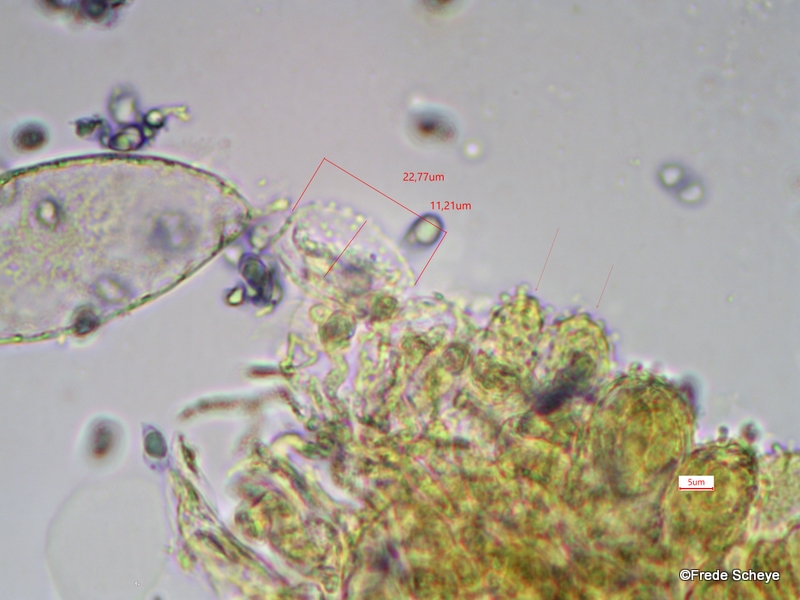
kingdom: Fungi
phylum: Basidiomycota
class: Agaricomycetes
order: Agaricales
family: Mycenaceae
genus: Mycena
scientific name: Mycena flavescens
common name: grågul huesvamp
